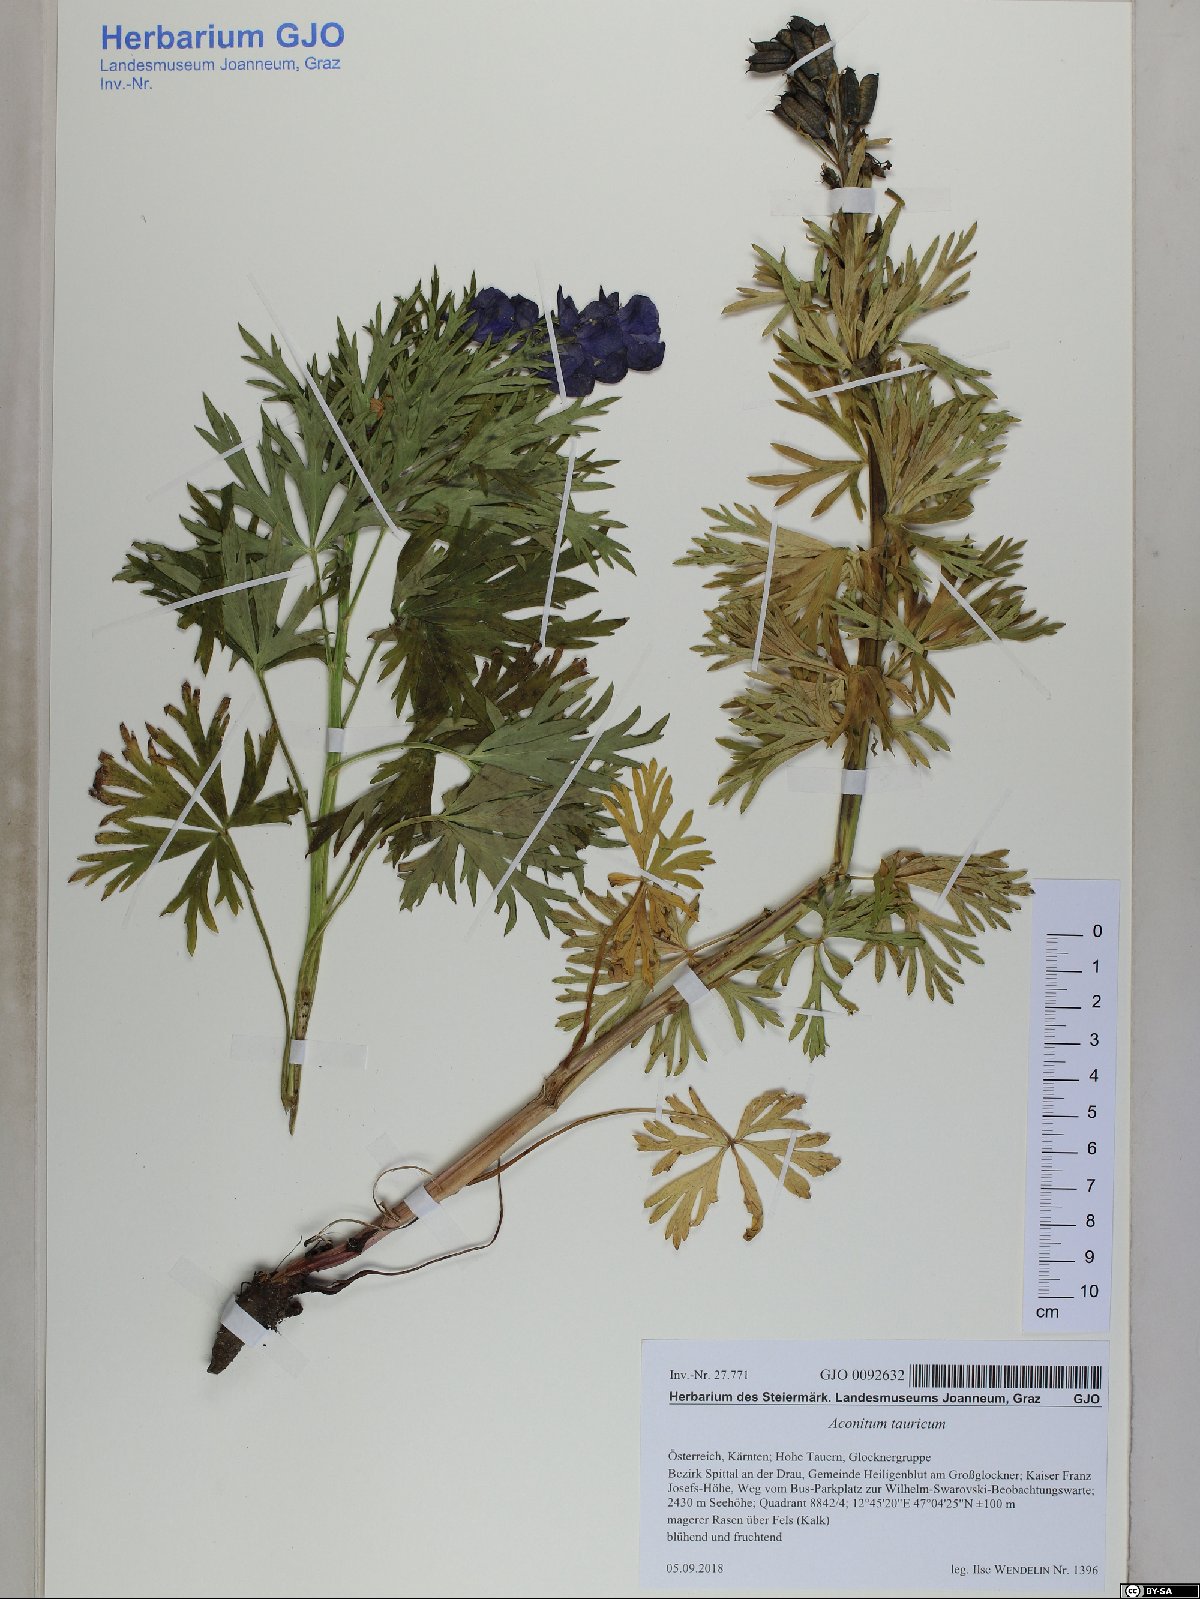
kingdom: Plantae
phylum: Tracheophyta
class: Magnoliopsida
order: Ranunculales
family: Ranunculaceae
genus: Aconitum
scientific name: Aconitum tauricum
